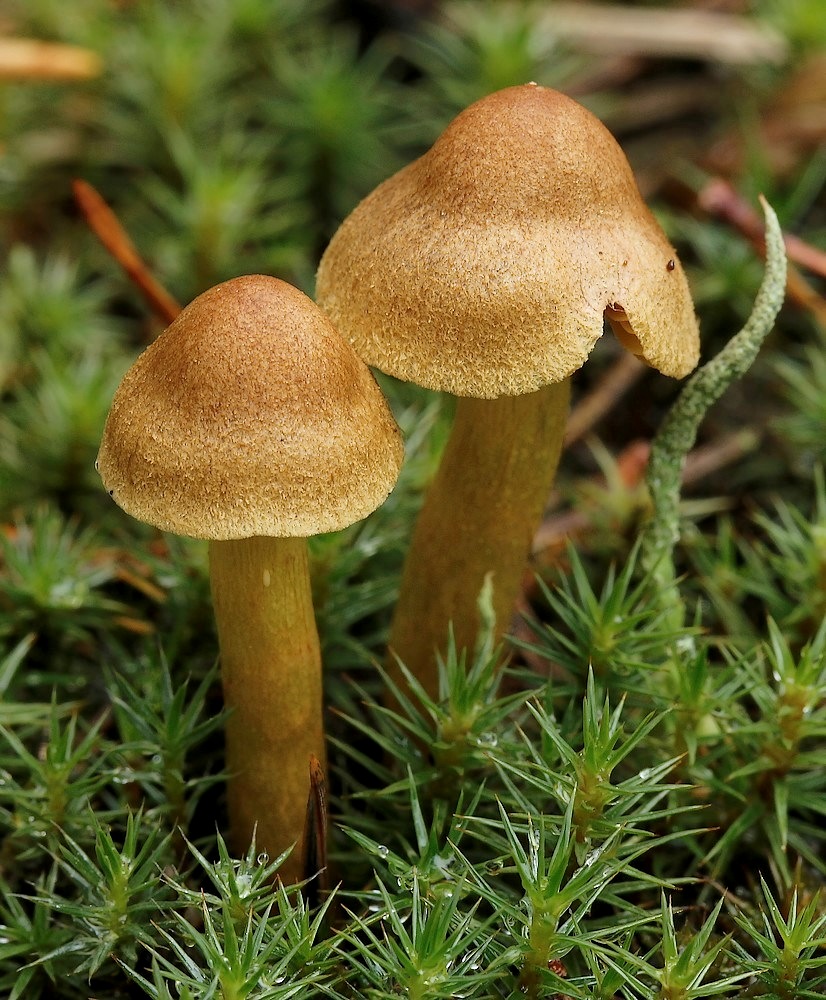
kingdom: Fungi
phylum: Basidiomycota
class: Agaricomycetes
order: Agaricales
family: Cortinariaceae
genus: Cortinarius
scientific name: Cortinarius
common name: gulbladet slørhat
